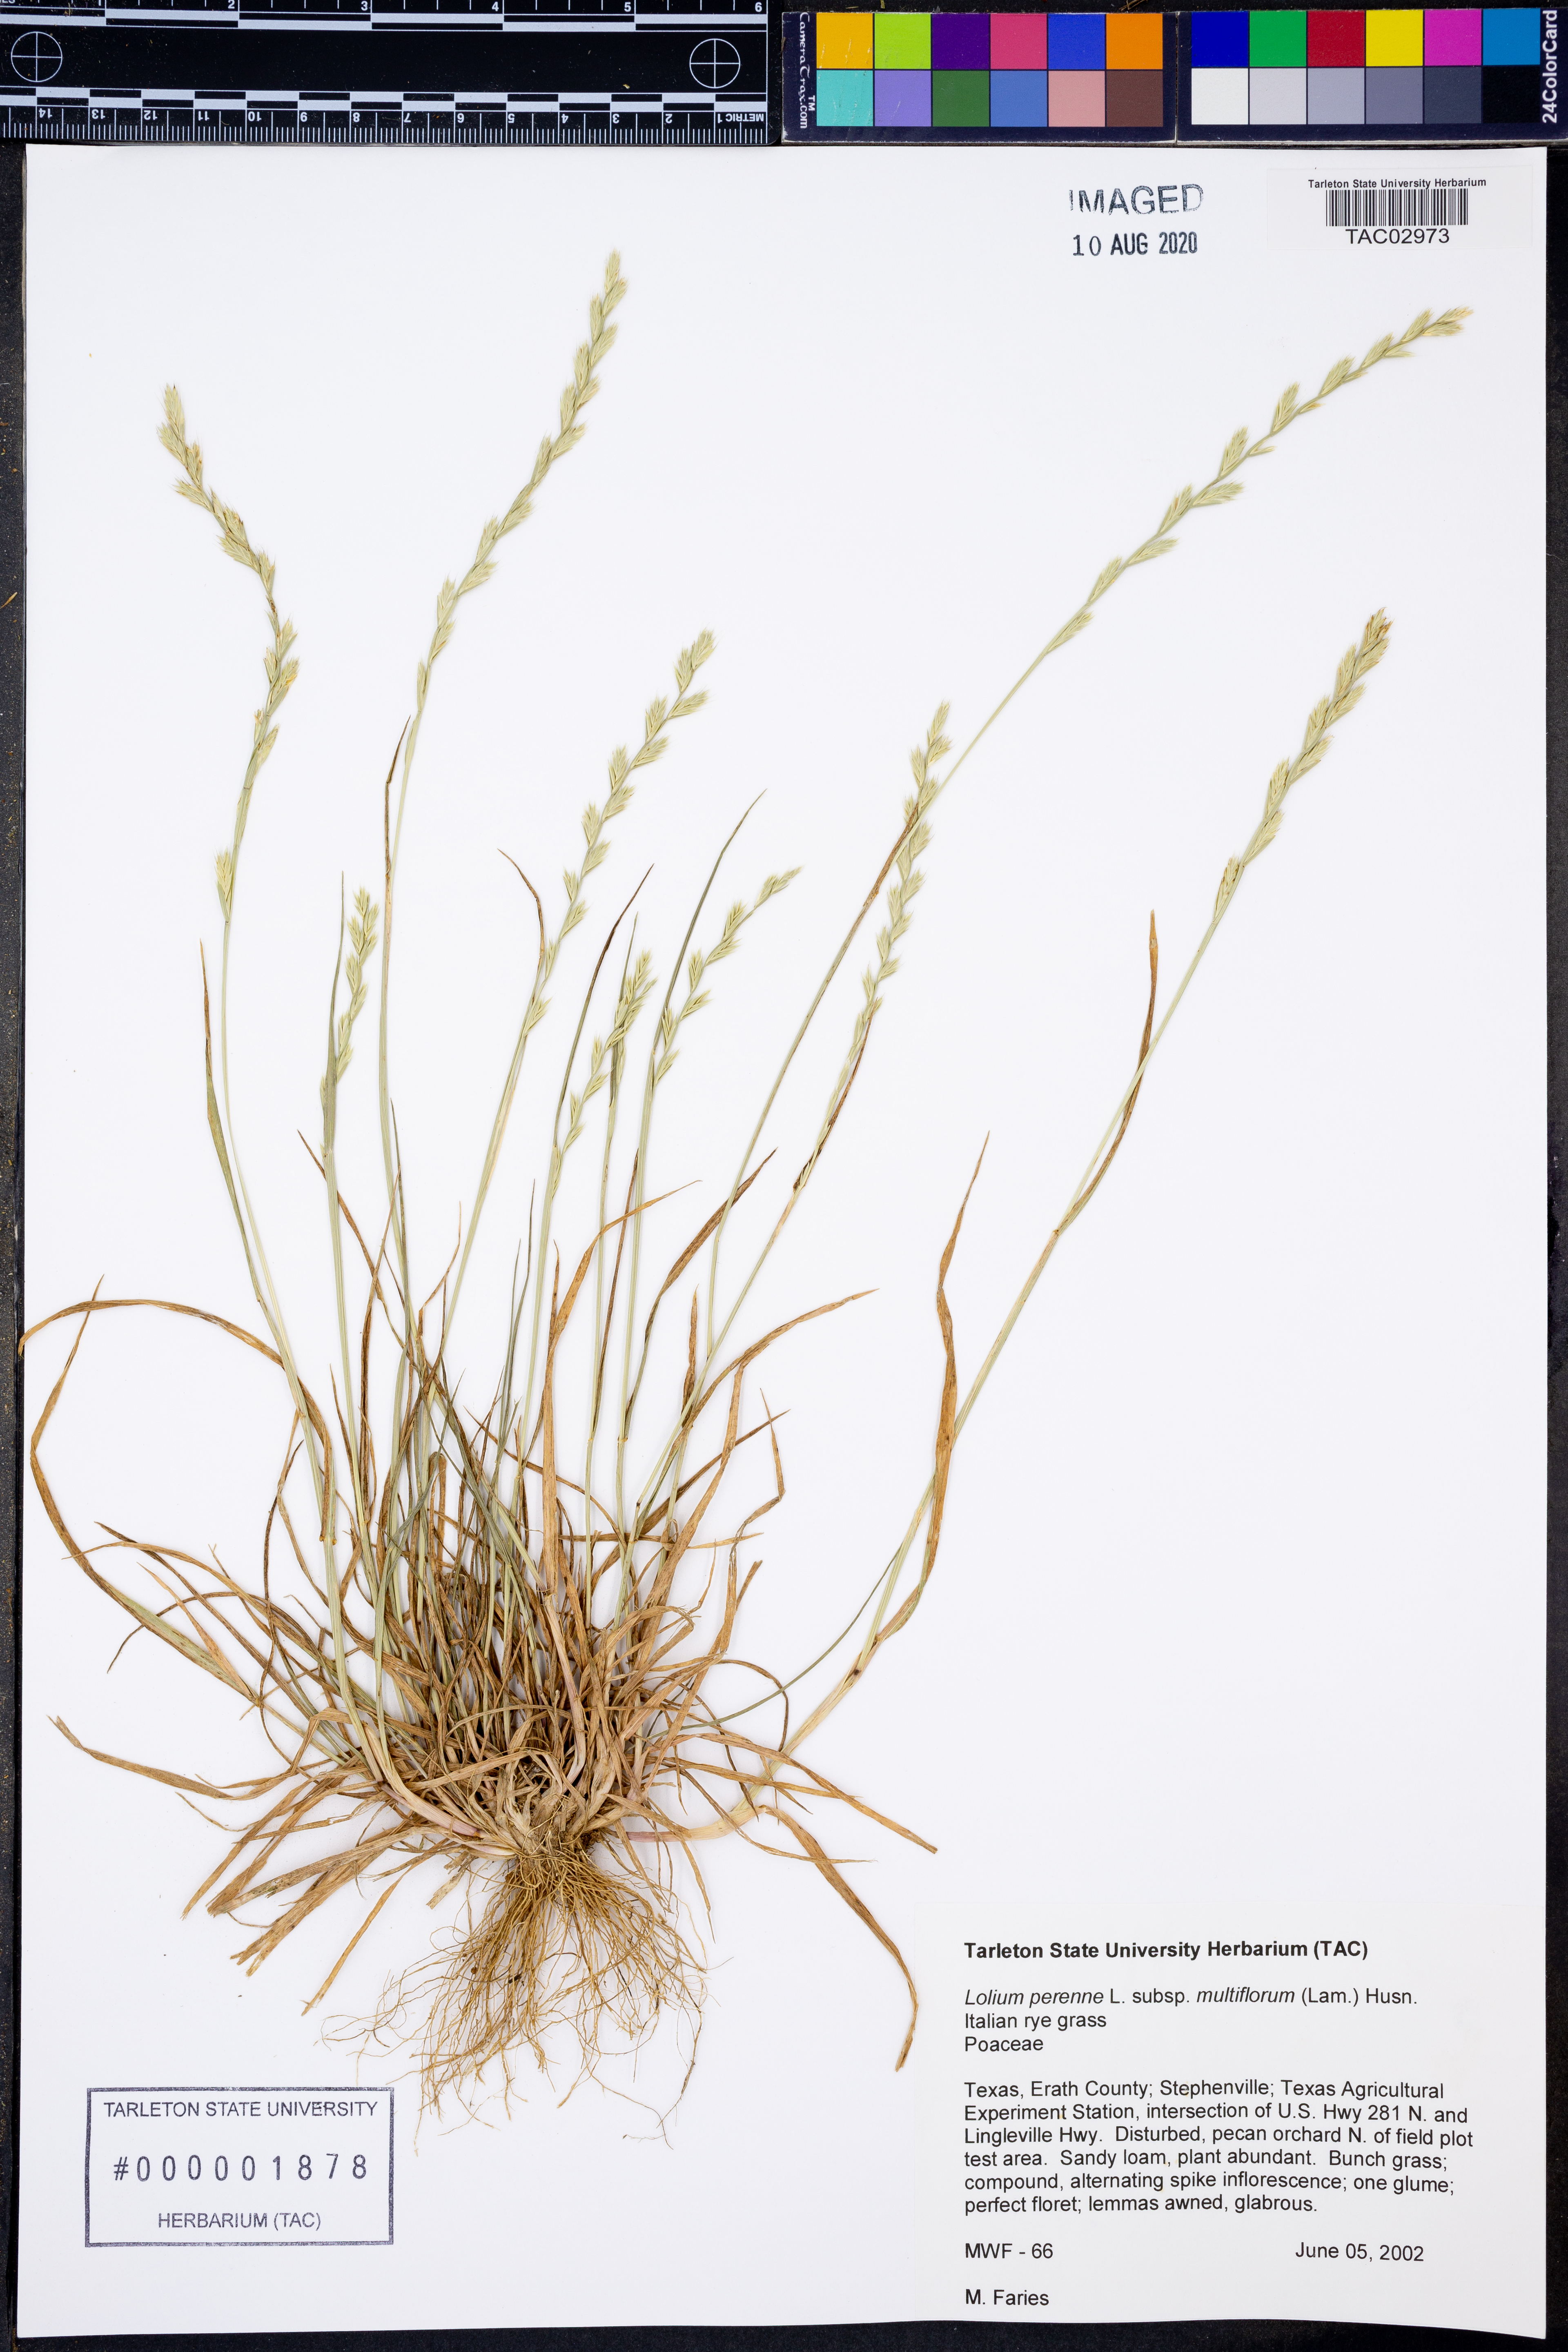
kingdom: Plantae
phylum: Tracheophyta
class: Liliopsida
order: Poales
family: Poaceae
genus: Lolium
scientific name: Lolium multiflorum
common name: Annual ryegrass
